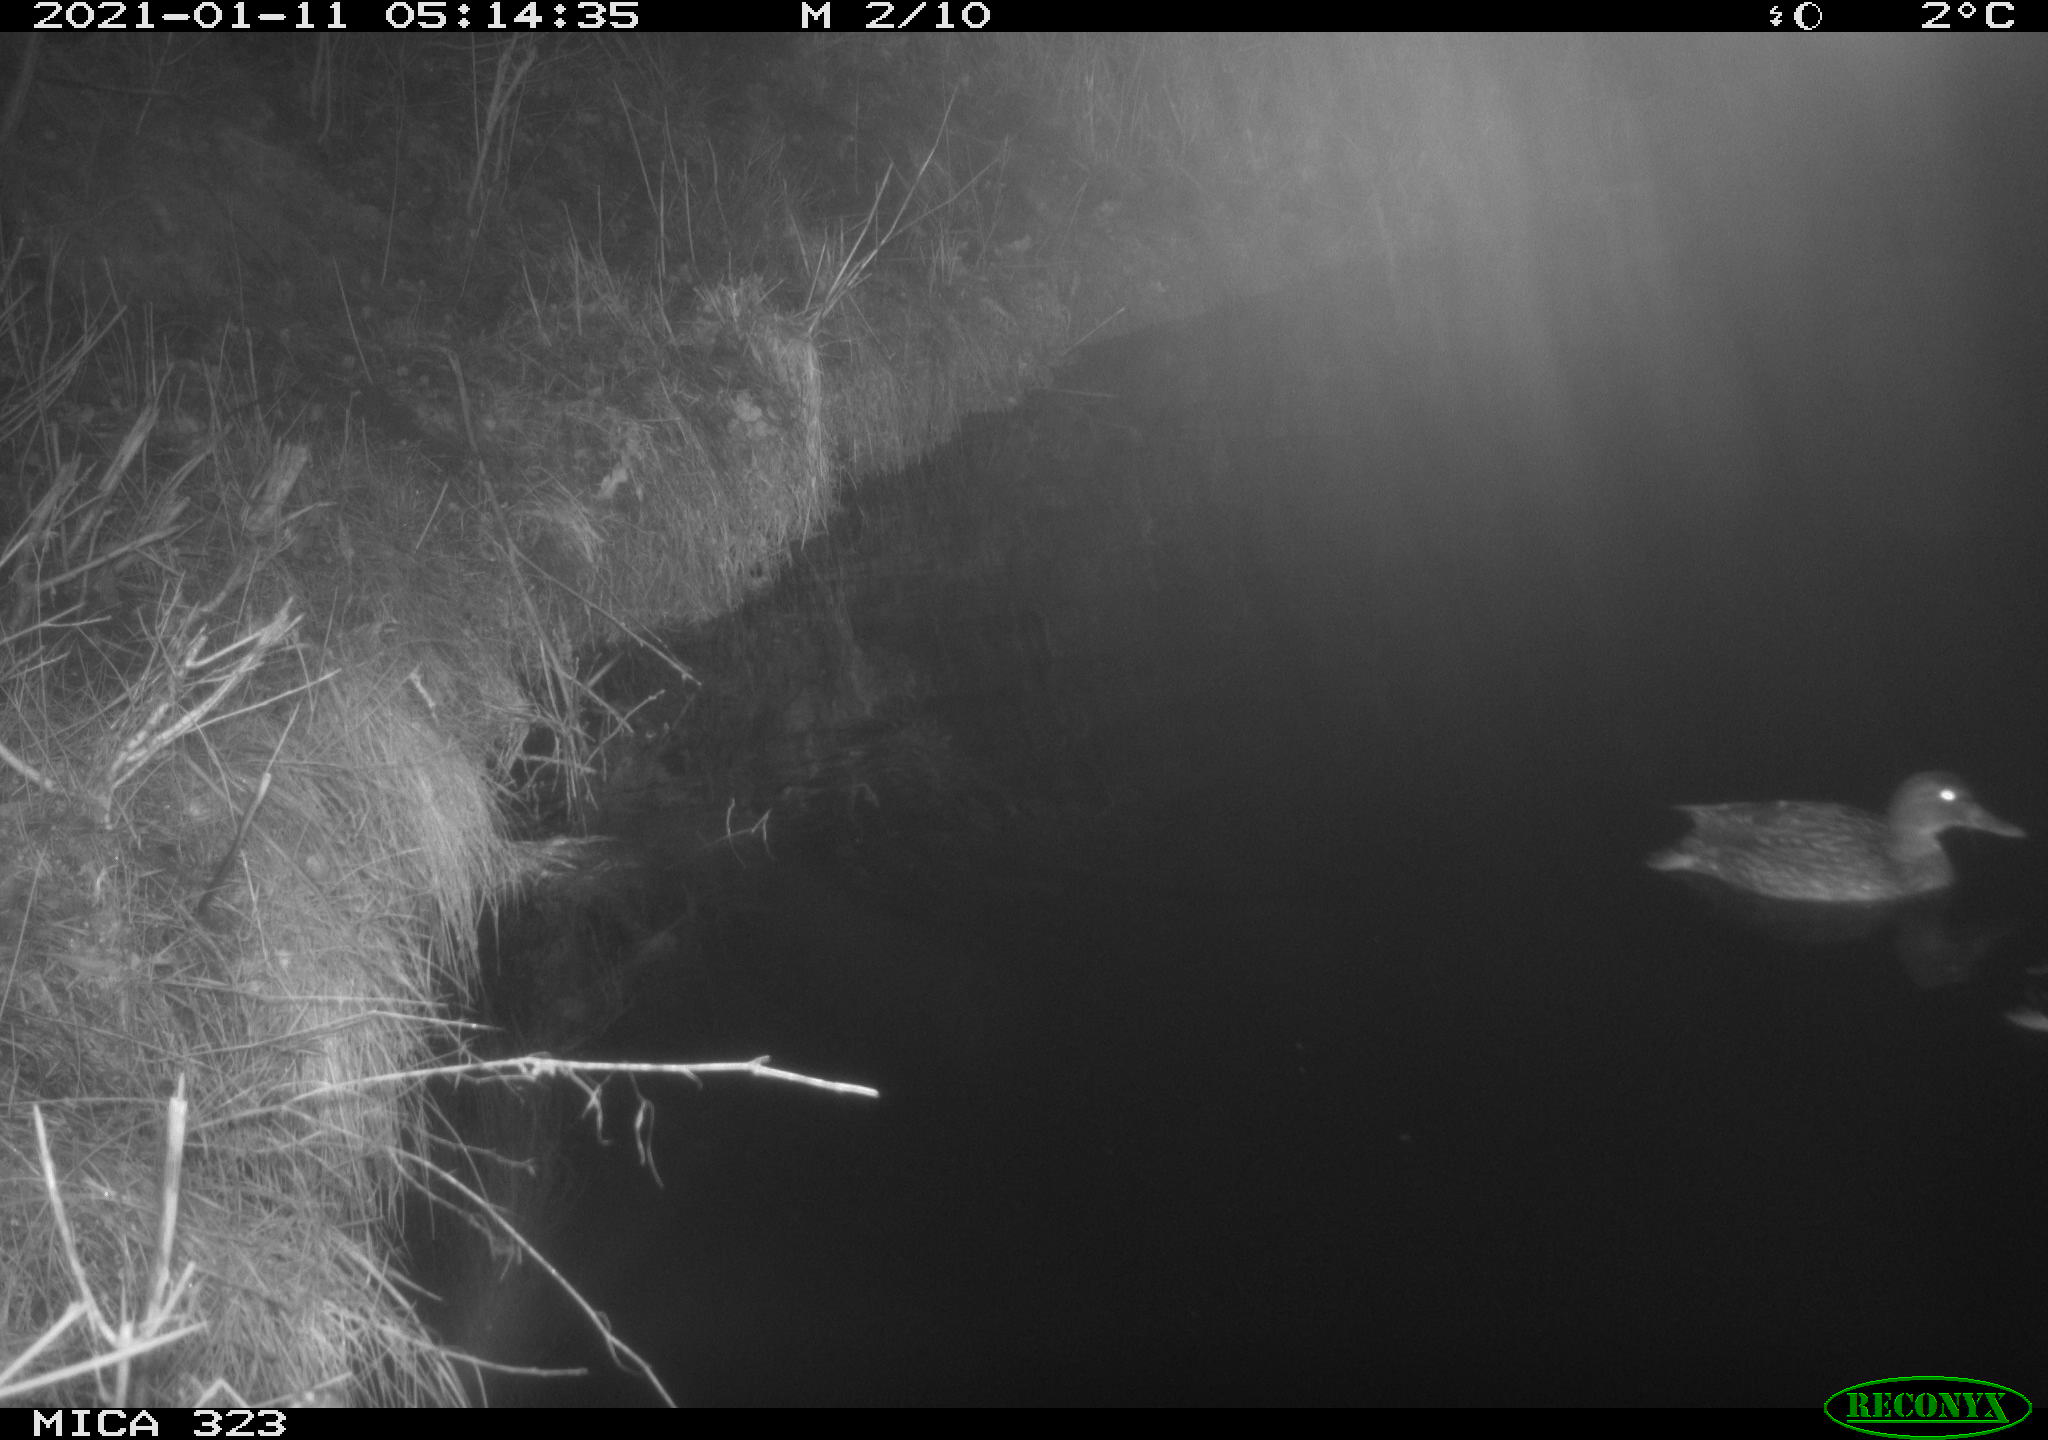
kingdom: Animalia
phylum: Chordata
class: Aves
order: Anseriformes
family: Anatidae
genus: Anas
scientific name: Anas platyrhynchos
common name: Mallard
